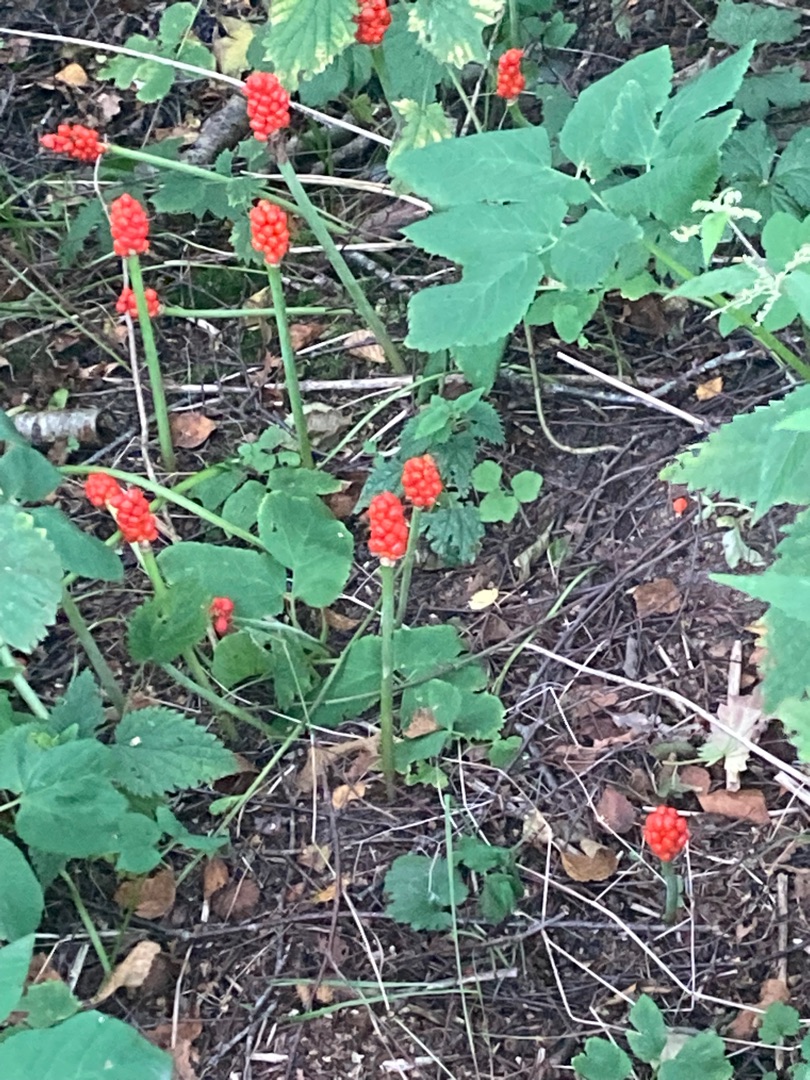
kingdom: Plantae
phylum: Tracheophyta
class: Liliopsida
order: Alismatales
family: Araceae
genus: Arum
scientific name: Arum
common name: Arumslægten
